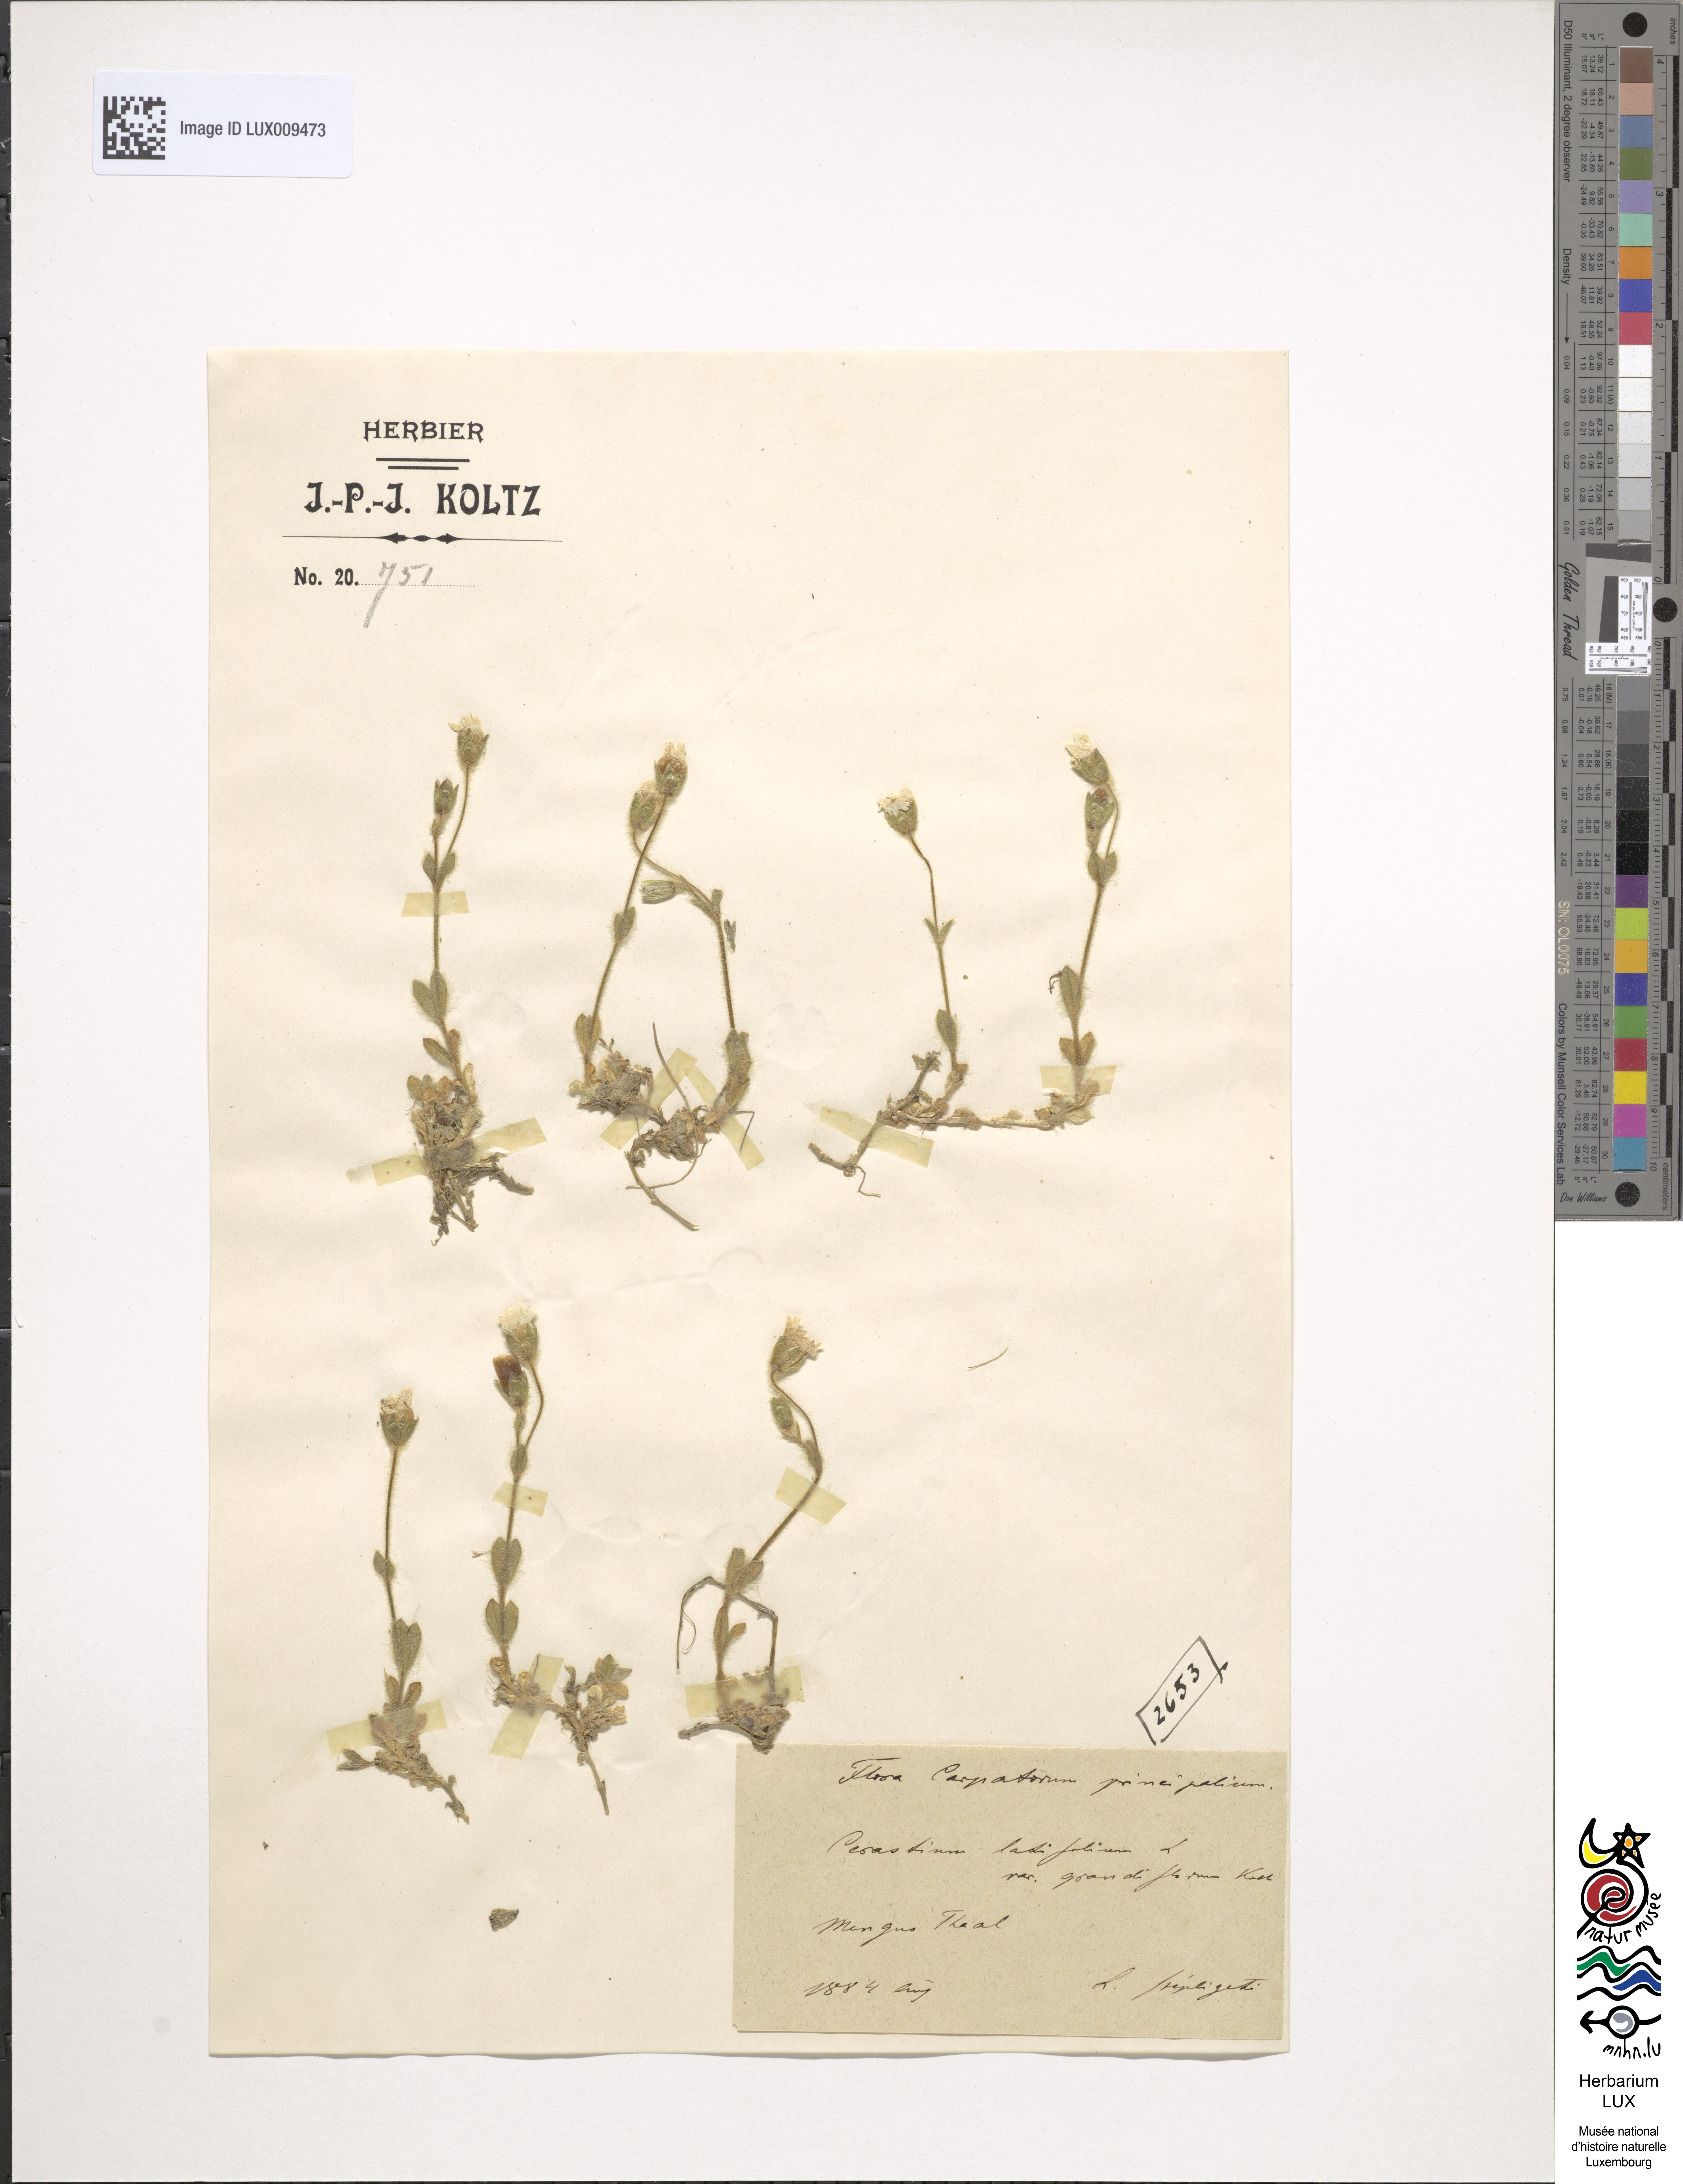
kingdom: Plantae
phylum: Tracheophyta
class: Magnoliopsida
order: Caryophyllales
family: Caryophyllaceae
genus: Cerastium
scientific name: Cerastium latifolium
